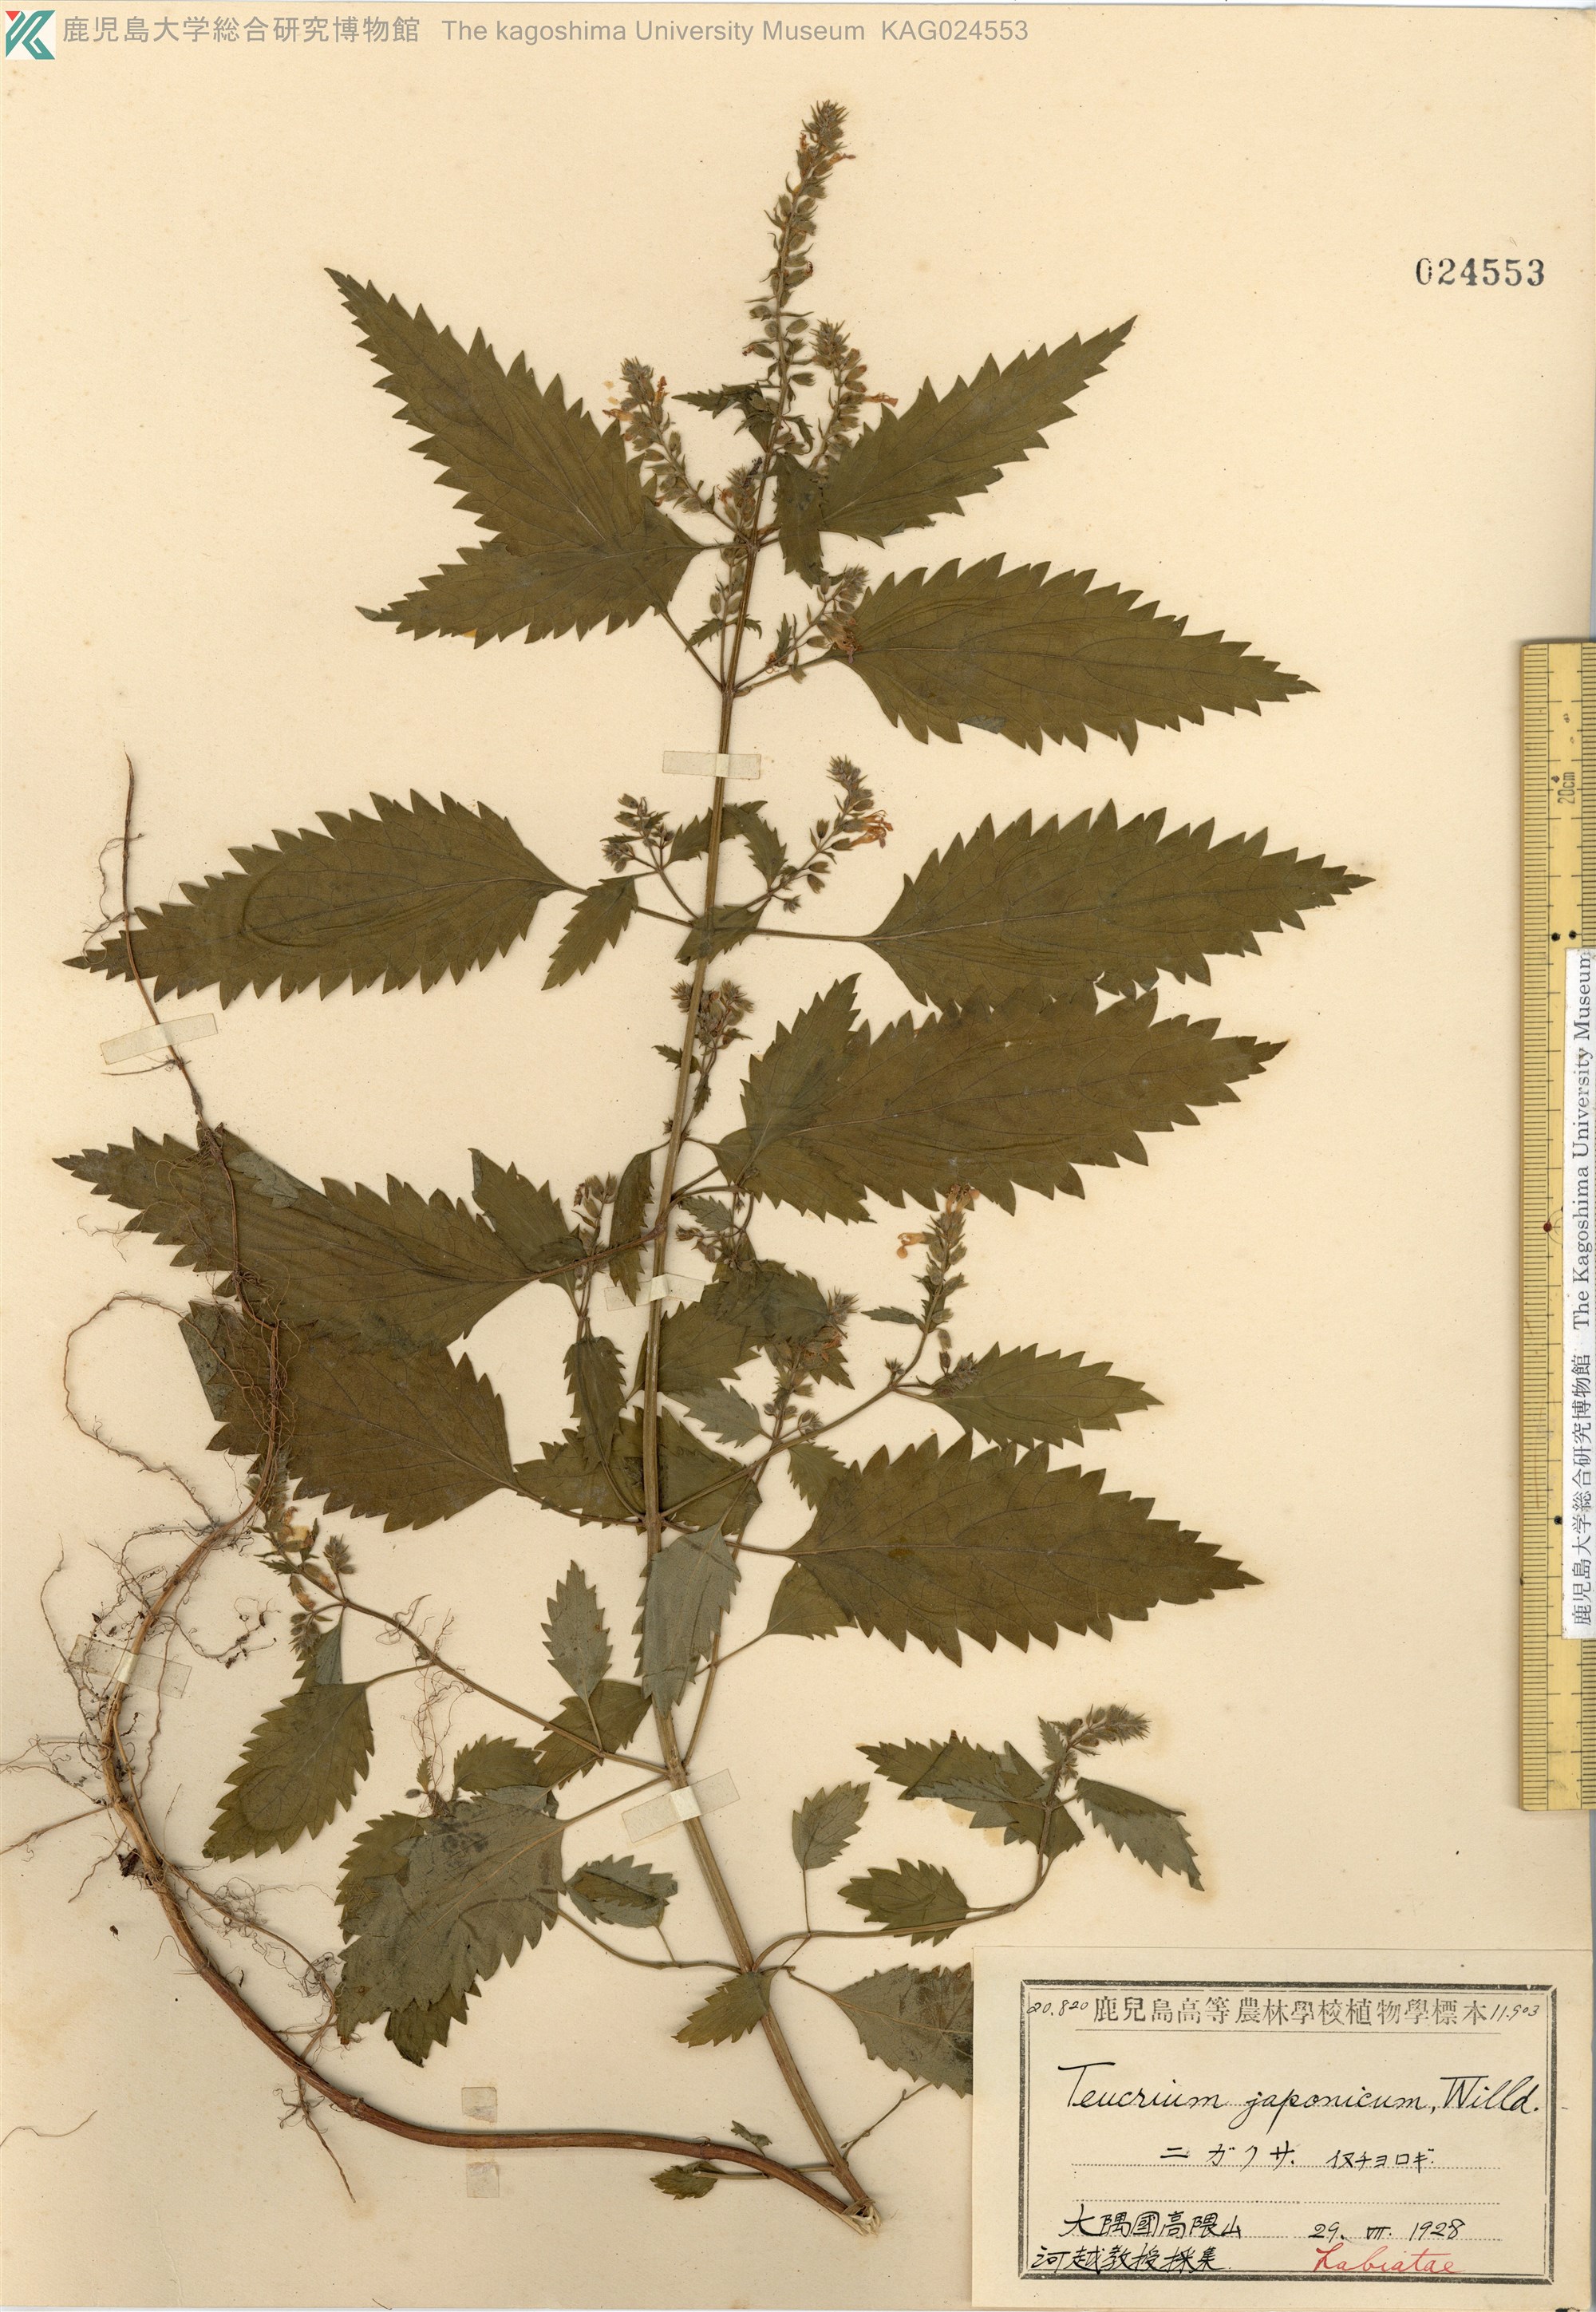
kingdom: Plantae
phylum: Tracheophyta
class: Magnoliopsida
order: Lamiales
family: Lamiaceae
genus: Teucrium
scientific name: Teucrium viscidum
